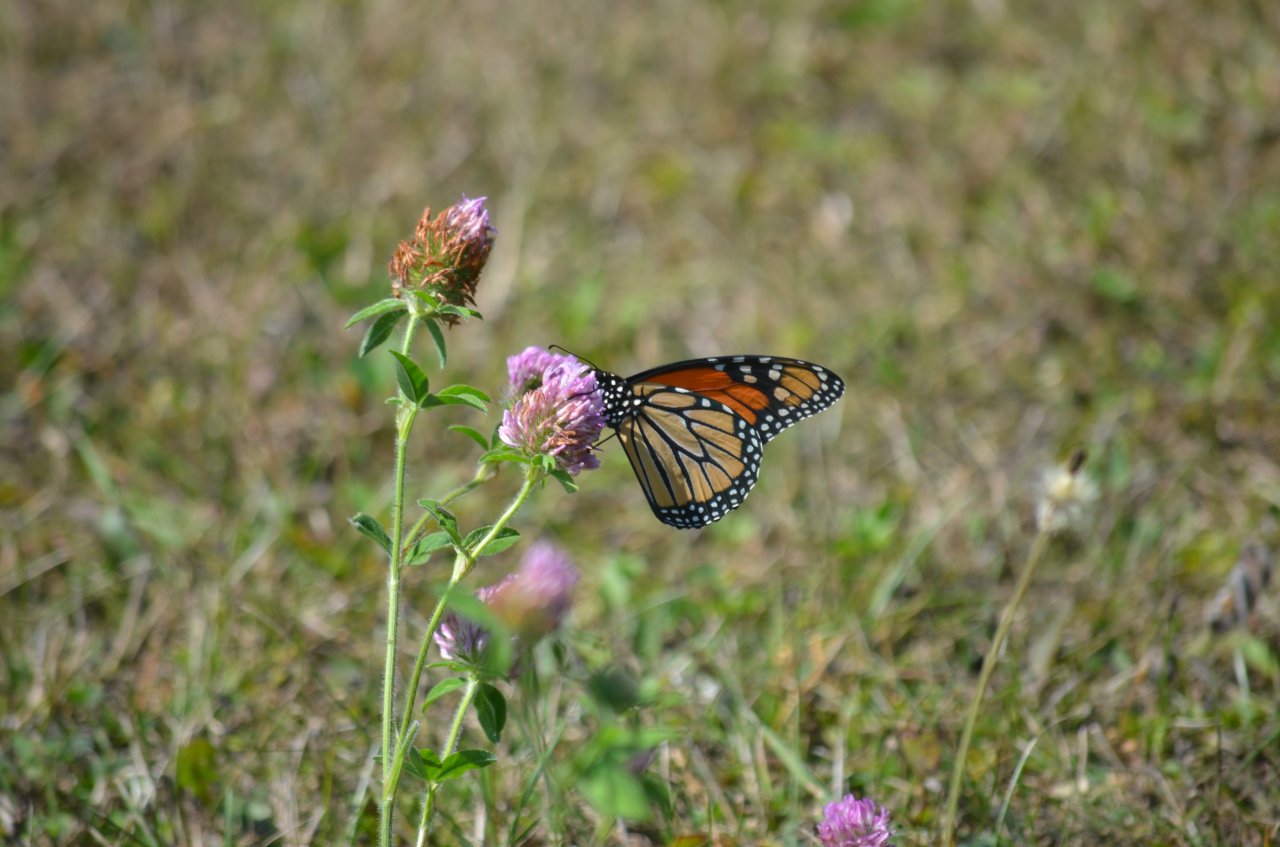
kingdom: Animalia
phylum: Arthropoda
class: Insecta
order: Lepidoptera
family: Nymphalidae
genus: Danaus
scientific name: Danaus plexippus
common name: Monarch
